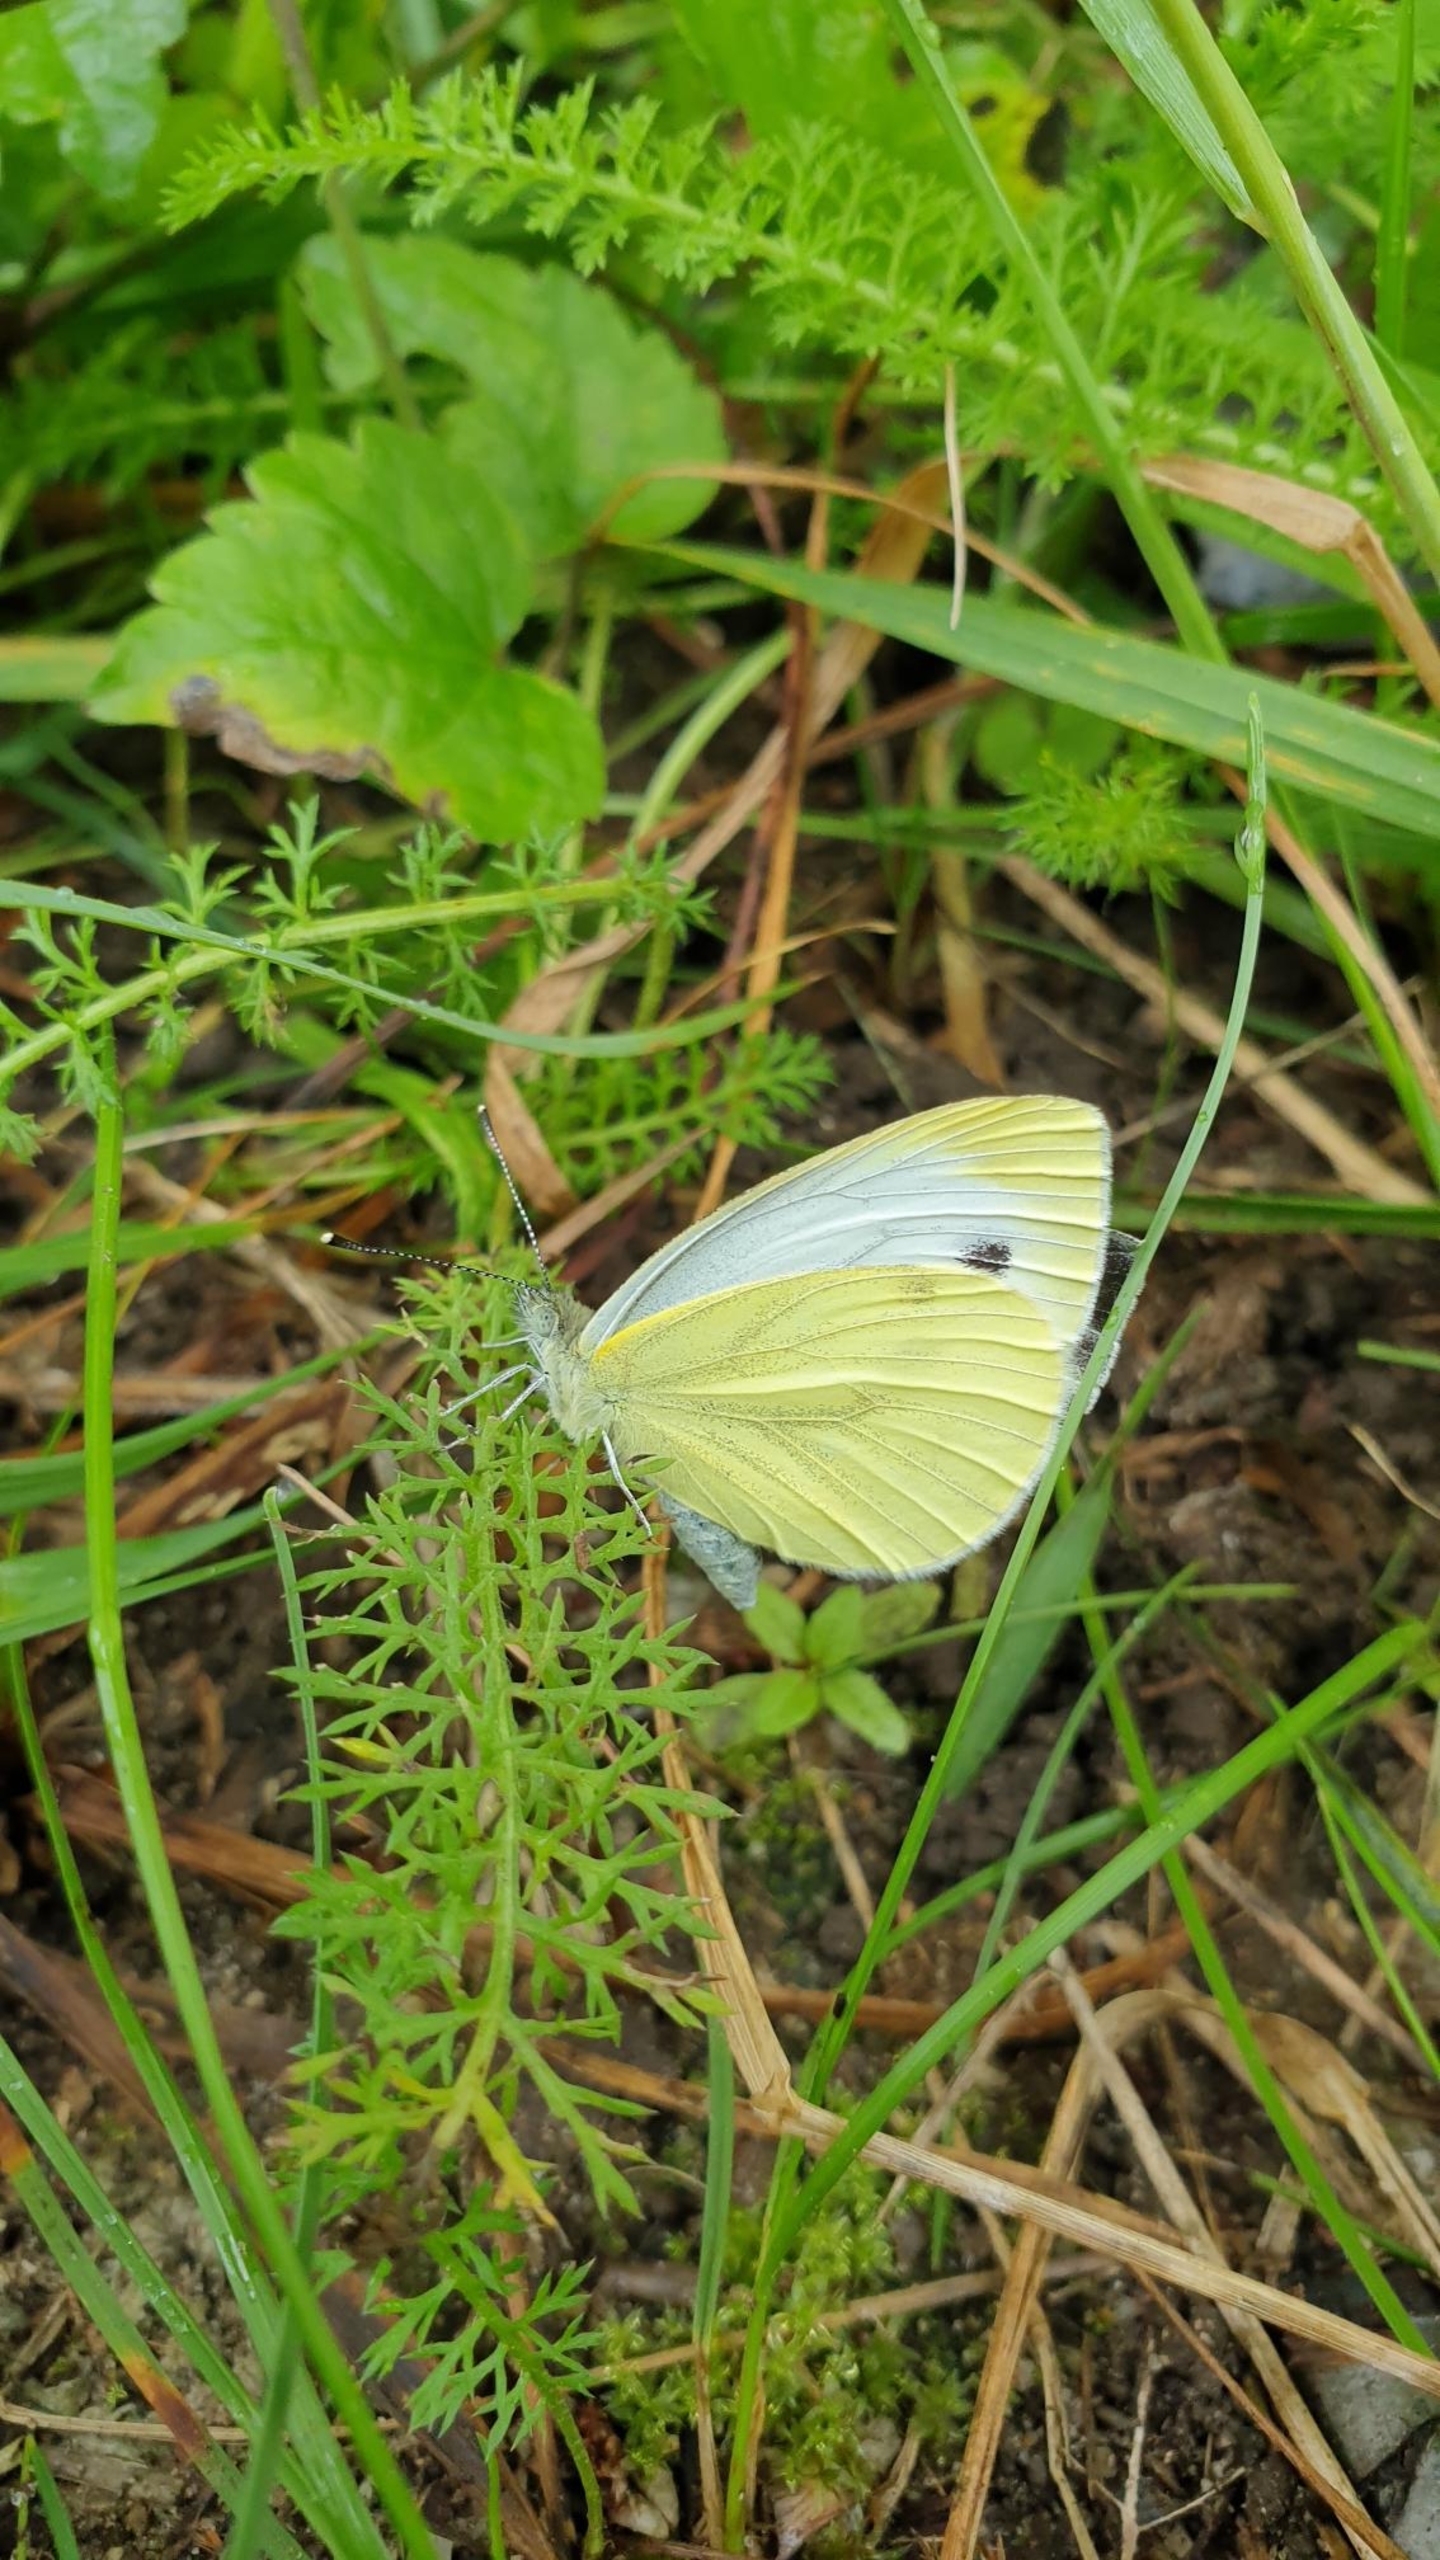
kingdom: Animalia
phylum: Arthropoda
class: Insecta
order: Lepidoptera
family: Pieridae
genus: Pieris
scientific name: Pieris rapae
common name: Lille kålsommerfugl
